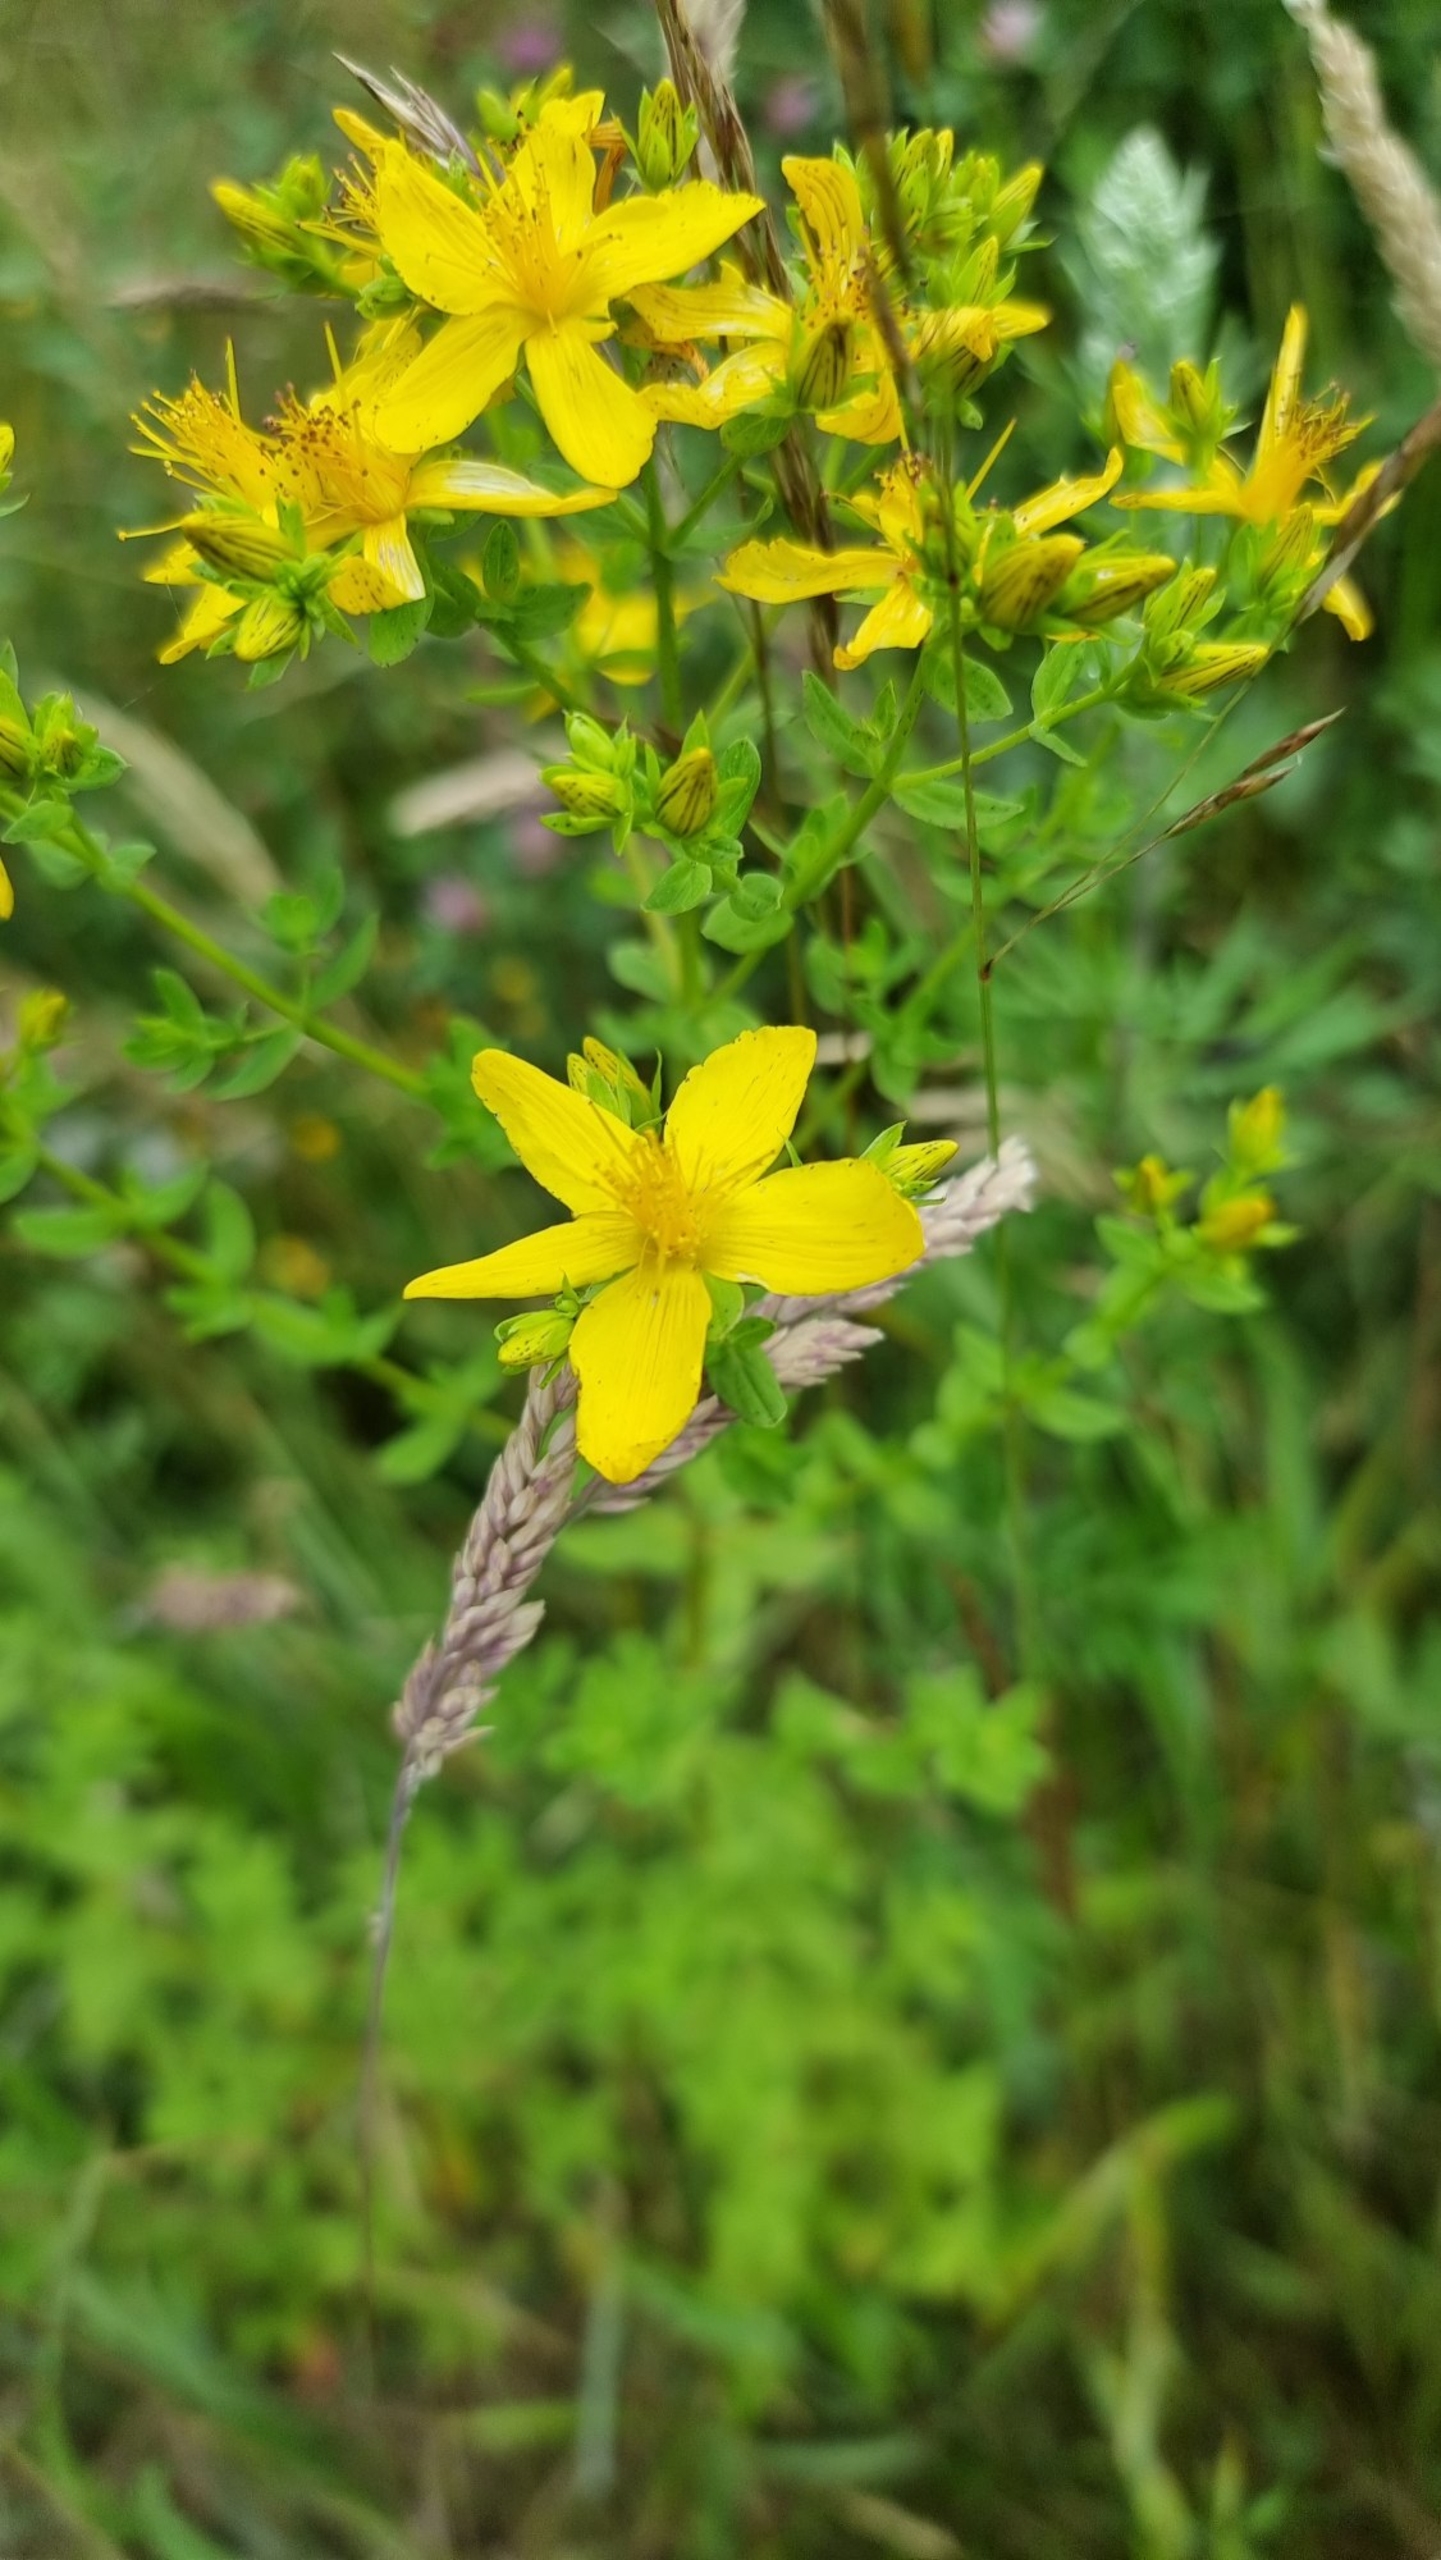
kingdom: Plantae
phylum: Tracheophyta
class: Magnoliopsida
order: Malpighiales
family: Hypericaceae
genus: Hypericum
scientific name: Hypericum perforatum
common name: Prikbladet perikon
